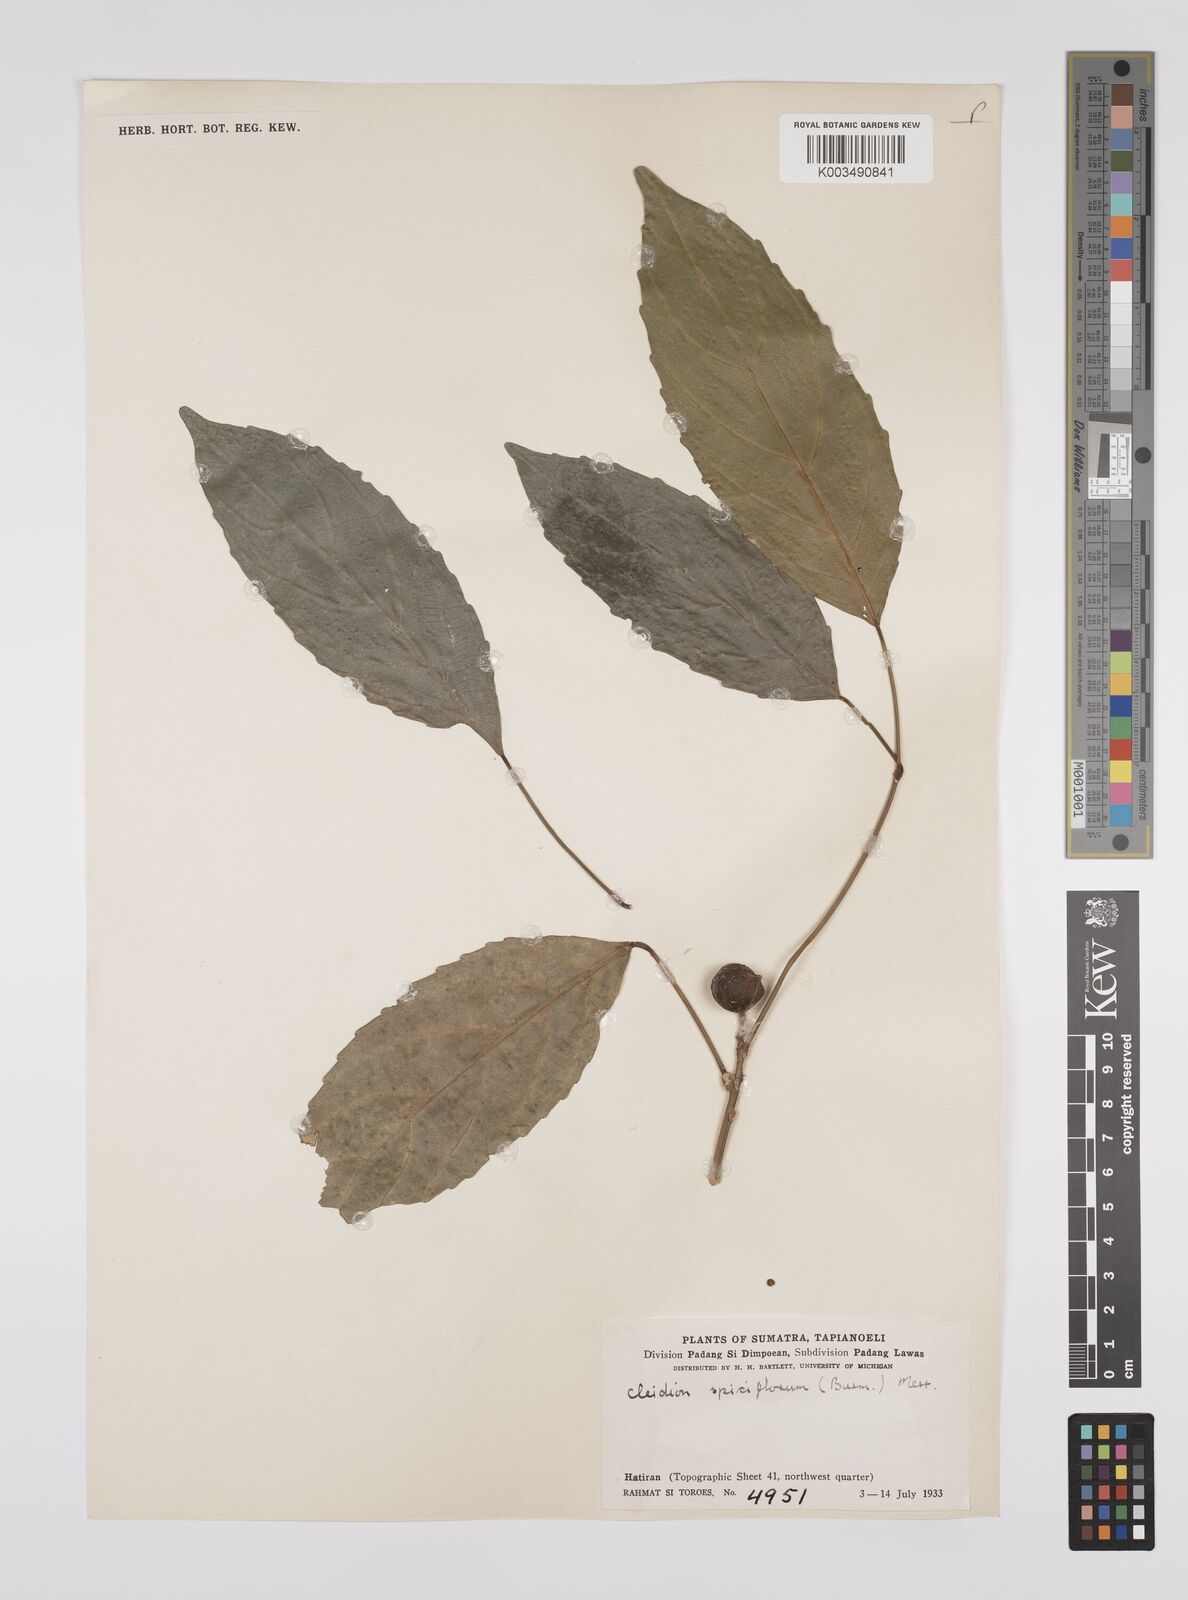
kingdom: Plantae
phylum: Tracheophyta
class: Magnoliopsida
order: Malpighiales
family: Euphorbiaceae
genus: Acalypha
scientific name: Acalypha spiciflora
